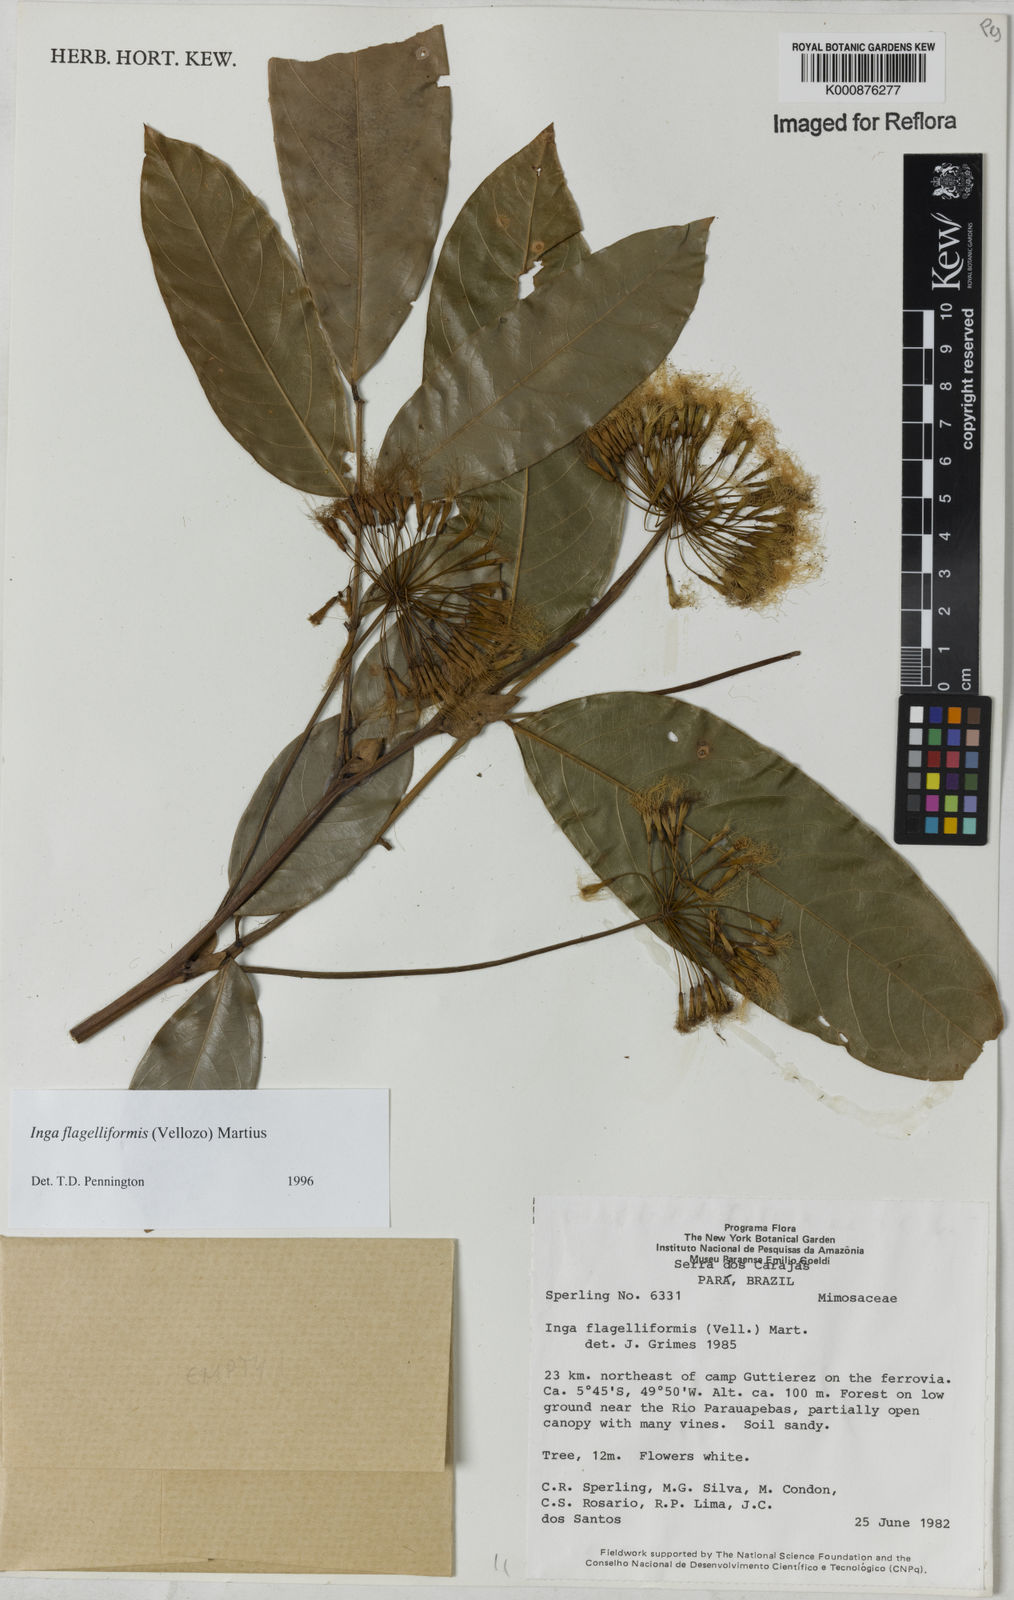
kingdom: Plantae
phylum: Tracheophyta
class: Magnoliopsida
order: Fabales
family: Fabaceae
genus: Inga
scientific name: Inga flagelliformis
